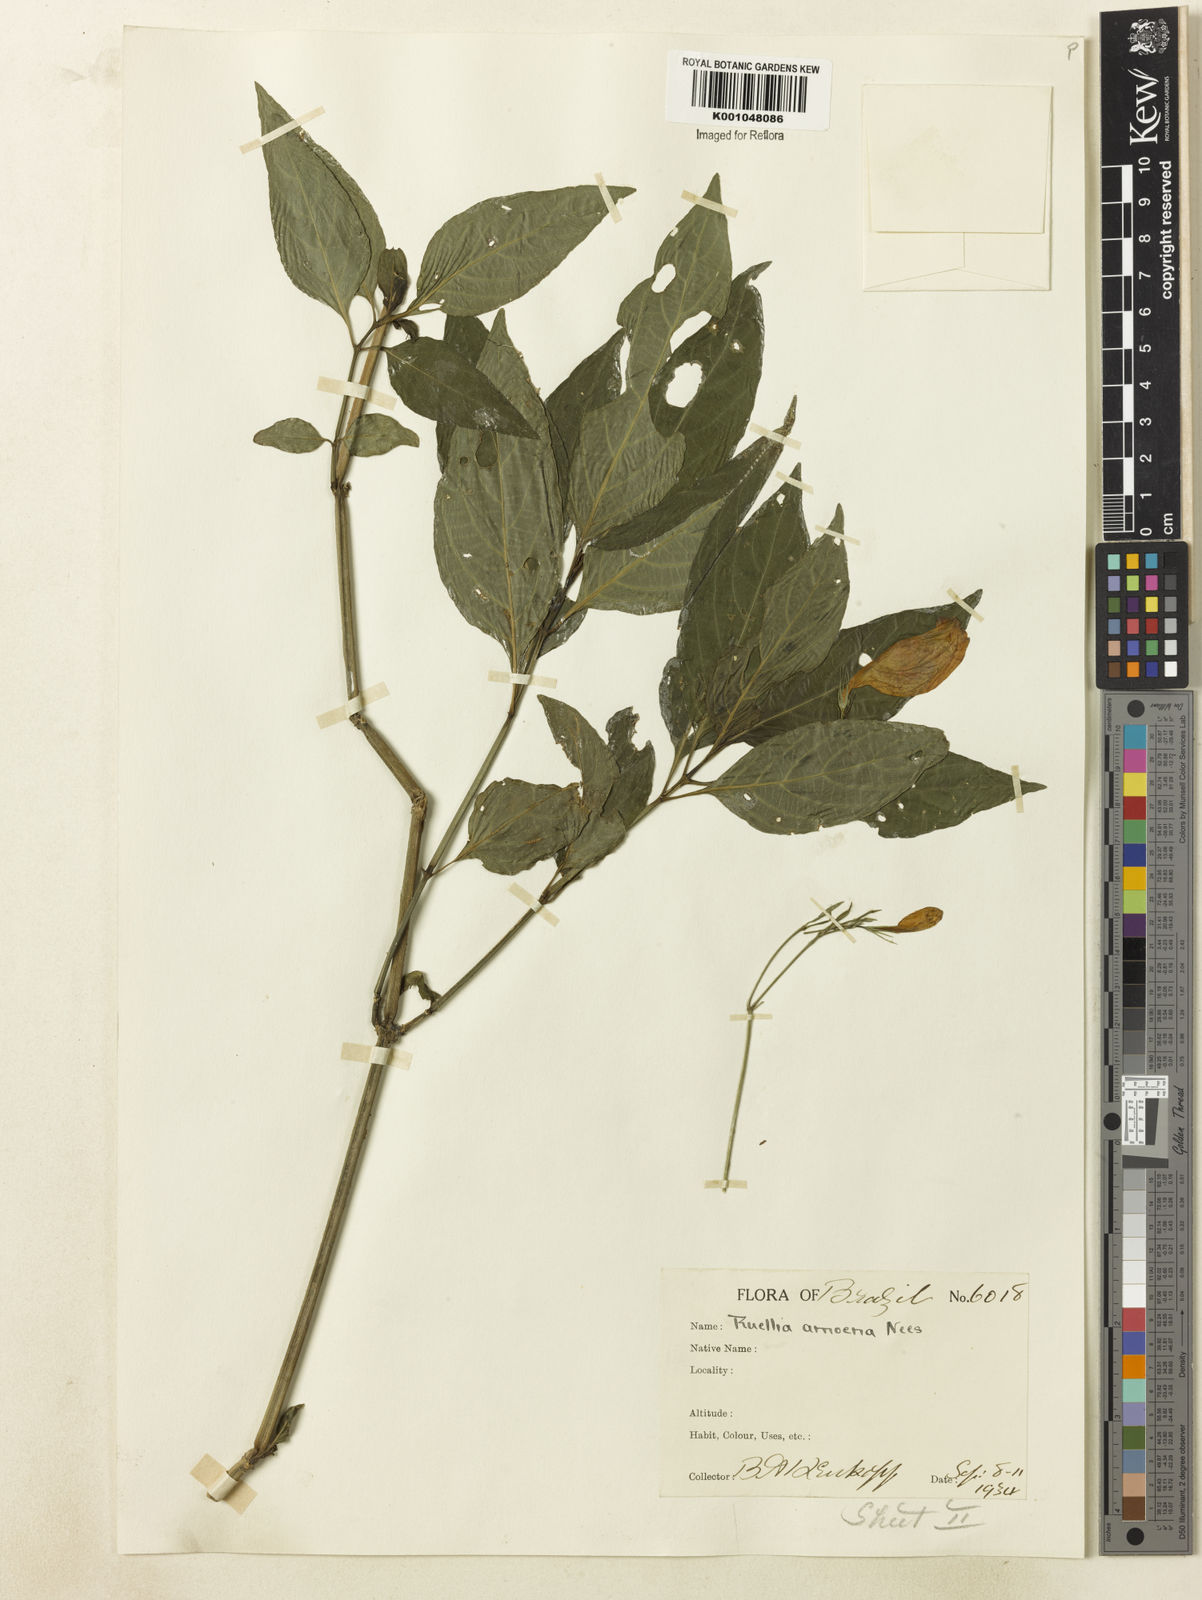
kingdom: Plantae
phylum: Tracheophyta
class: Magnoliopsida
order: Lamiales
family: Acanthaceae
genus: Ruellia
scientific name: Ruellia brevifolia
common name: Tropical wild petunia
